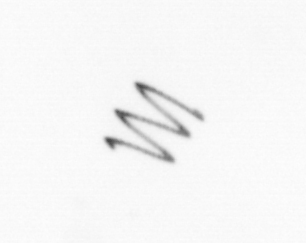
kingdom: Chromista
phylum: Ochrophyta
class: Bacillariophyceae
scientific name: Bacillariophyceae
